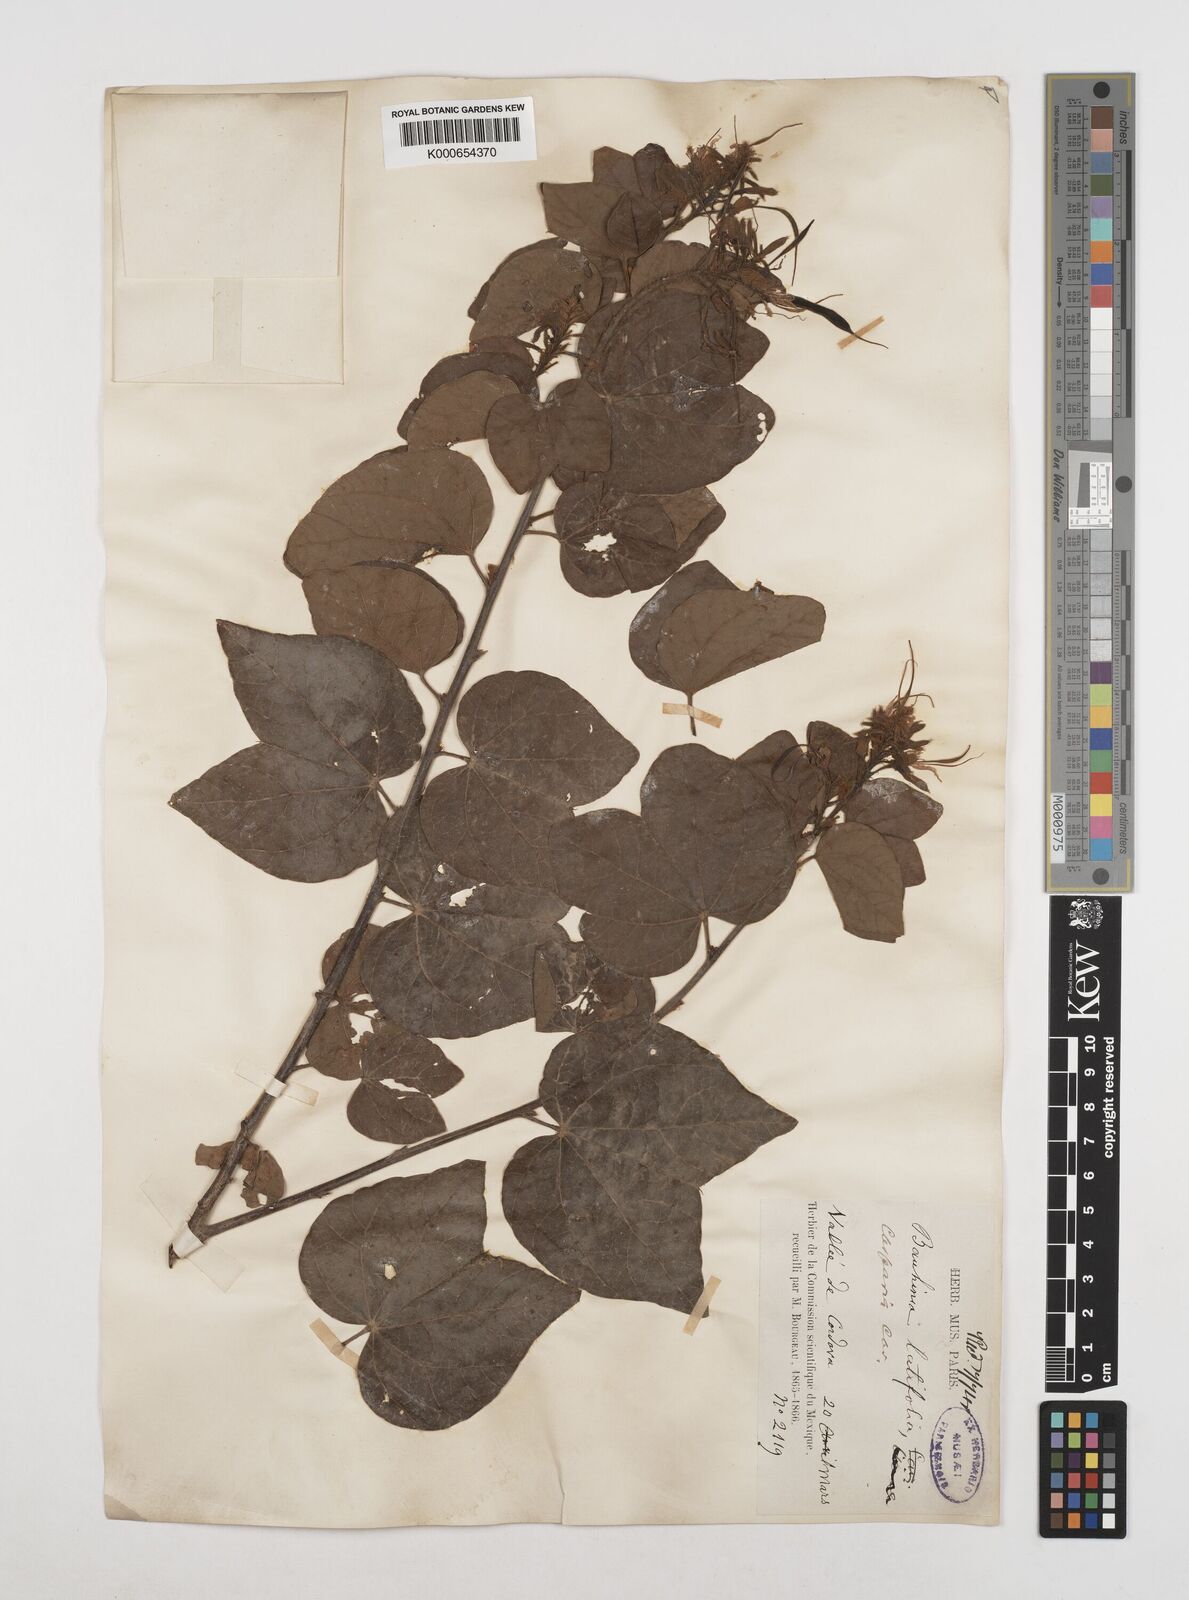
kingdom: Plantae
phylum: Tracheophyta
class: Magnoliopsida
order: Fabales
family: Fabaceae
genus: Bauhinia
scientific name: Bauhinia divaricata
